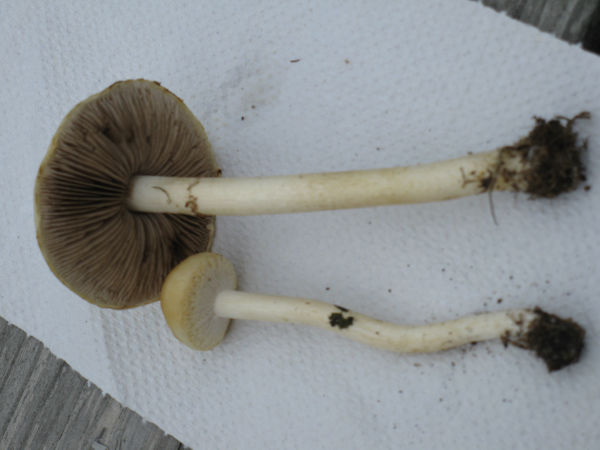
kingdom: Fungi
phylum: Basidiomycota
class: Agaricomycetes
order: Agaricales
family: Strophariaceae
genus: Agrocybe
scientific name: Agrocybe
